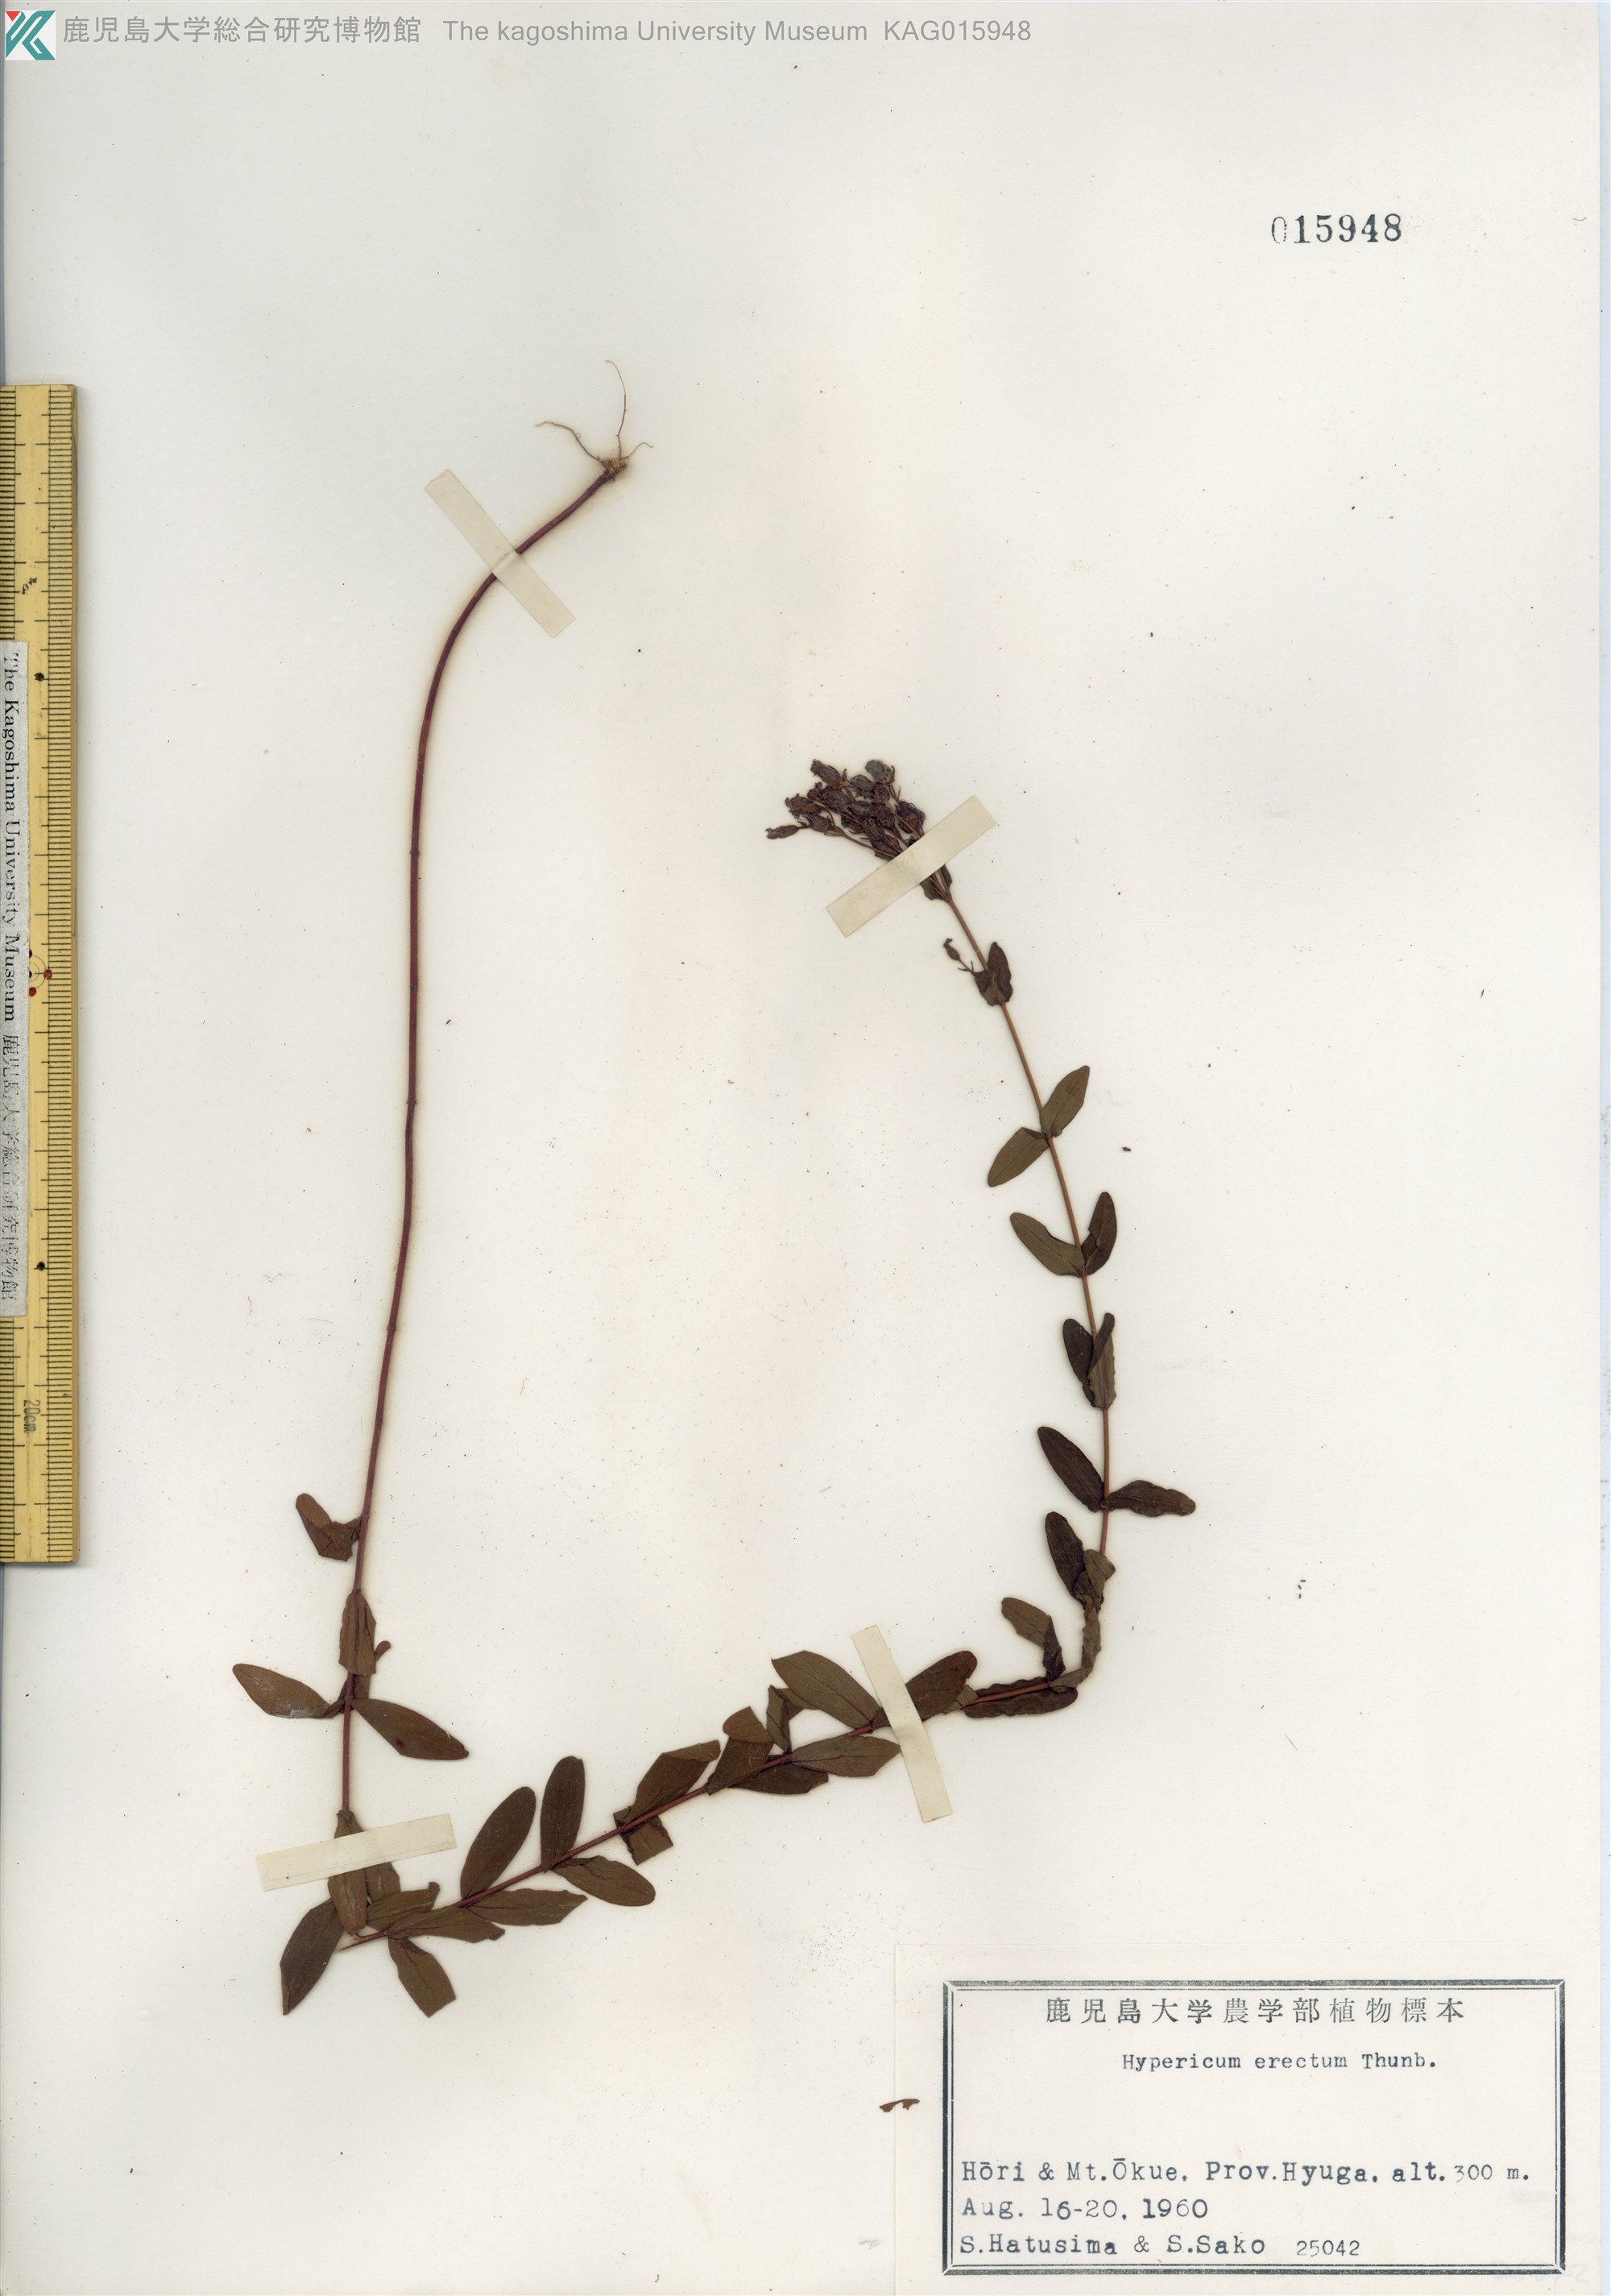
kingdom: Plantae
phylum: Tracheophyta
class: Magnoliopsida
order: Malpighiales
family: Hypericaceae
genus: Hypericum
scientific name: Hypericum erectum
